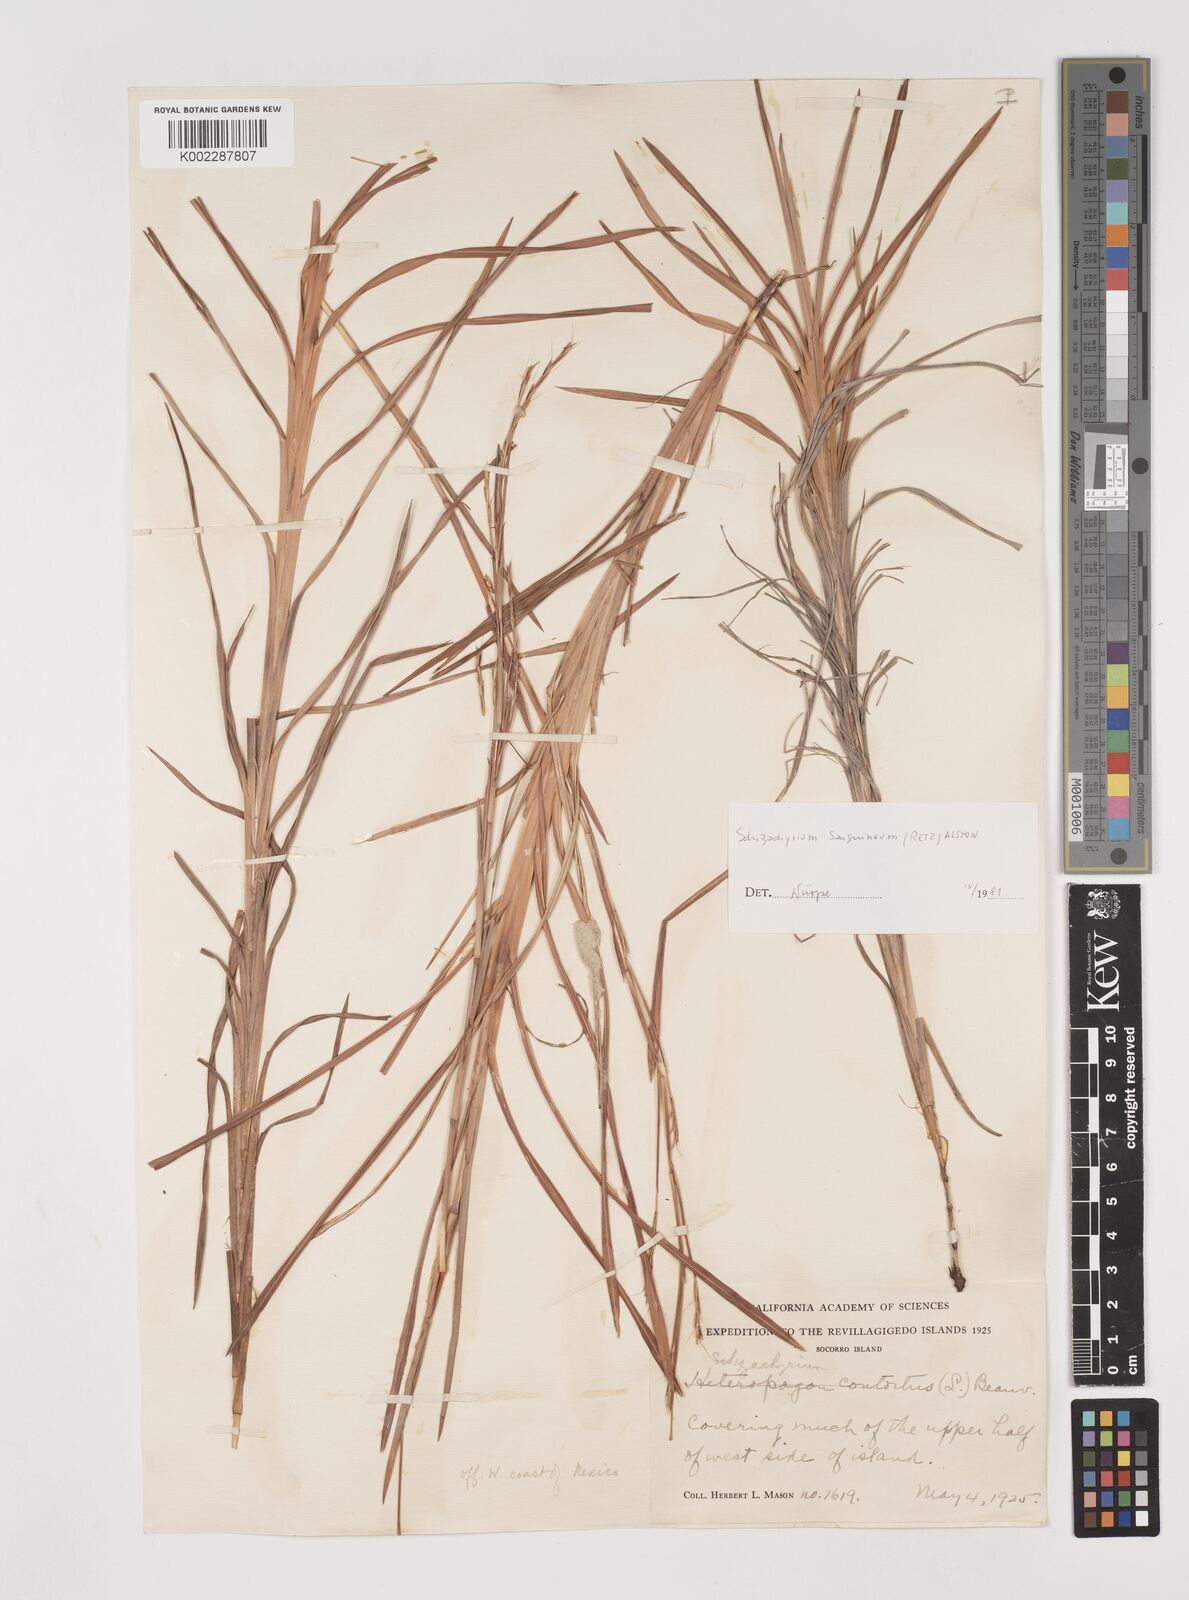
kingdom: Plantae
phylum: Tracheophyta
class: Liliopsida
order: Poales
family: Poaceae
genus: Schizachyrium
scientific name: Schizachyrium sanguineum
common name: Crimson bluestem
